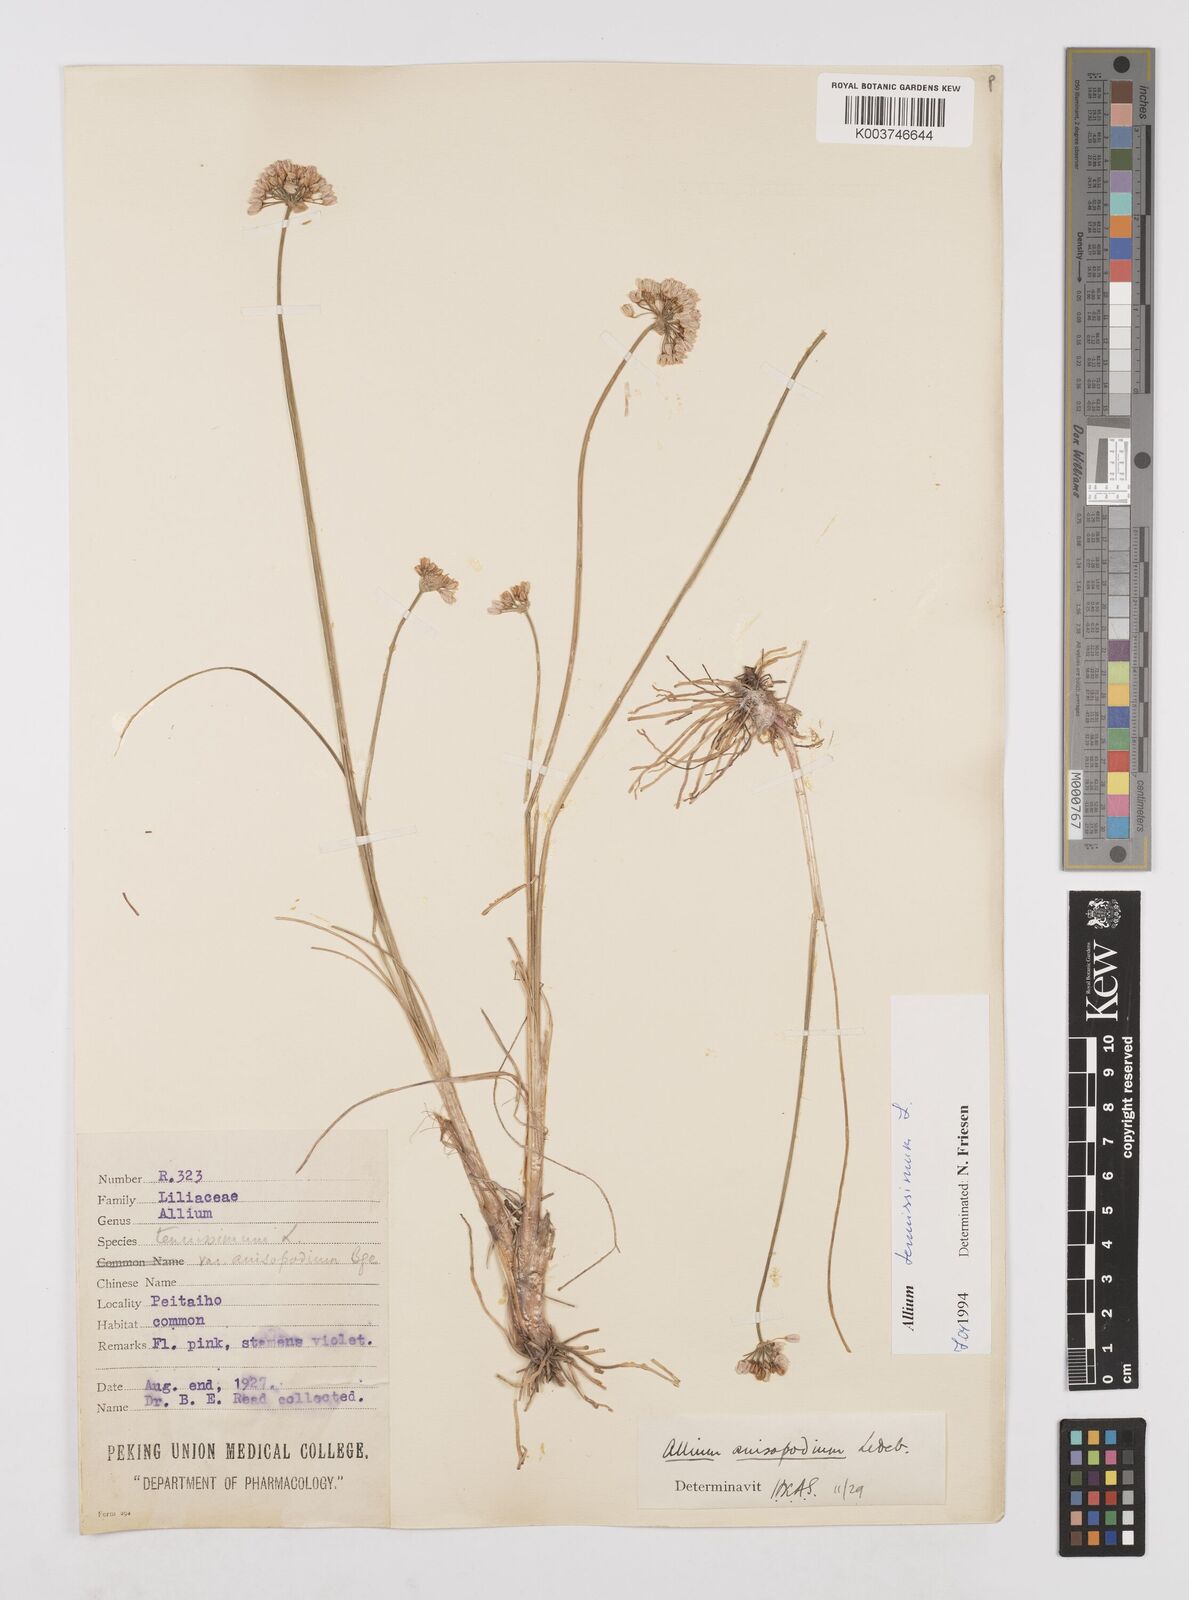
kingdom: Plantae
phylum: Tracheophyta
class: Liliopsida
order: Asparagales
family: Amaryllidaceae
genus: Allium
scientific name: Allium tenuissimum
